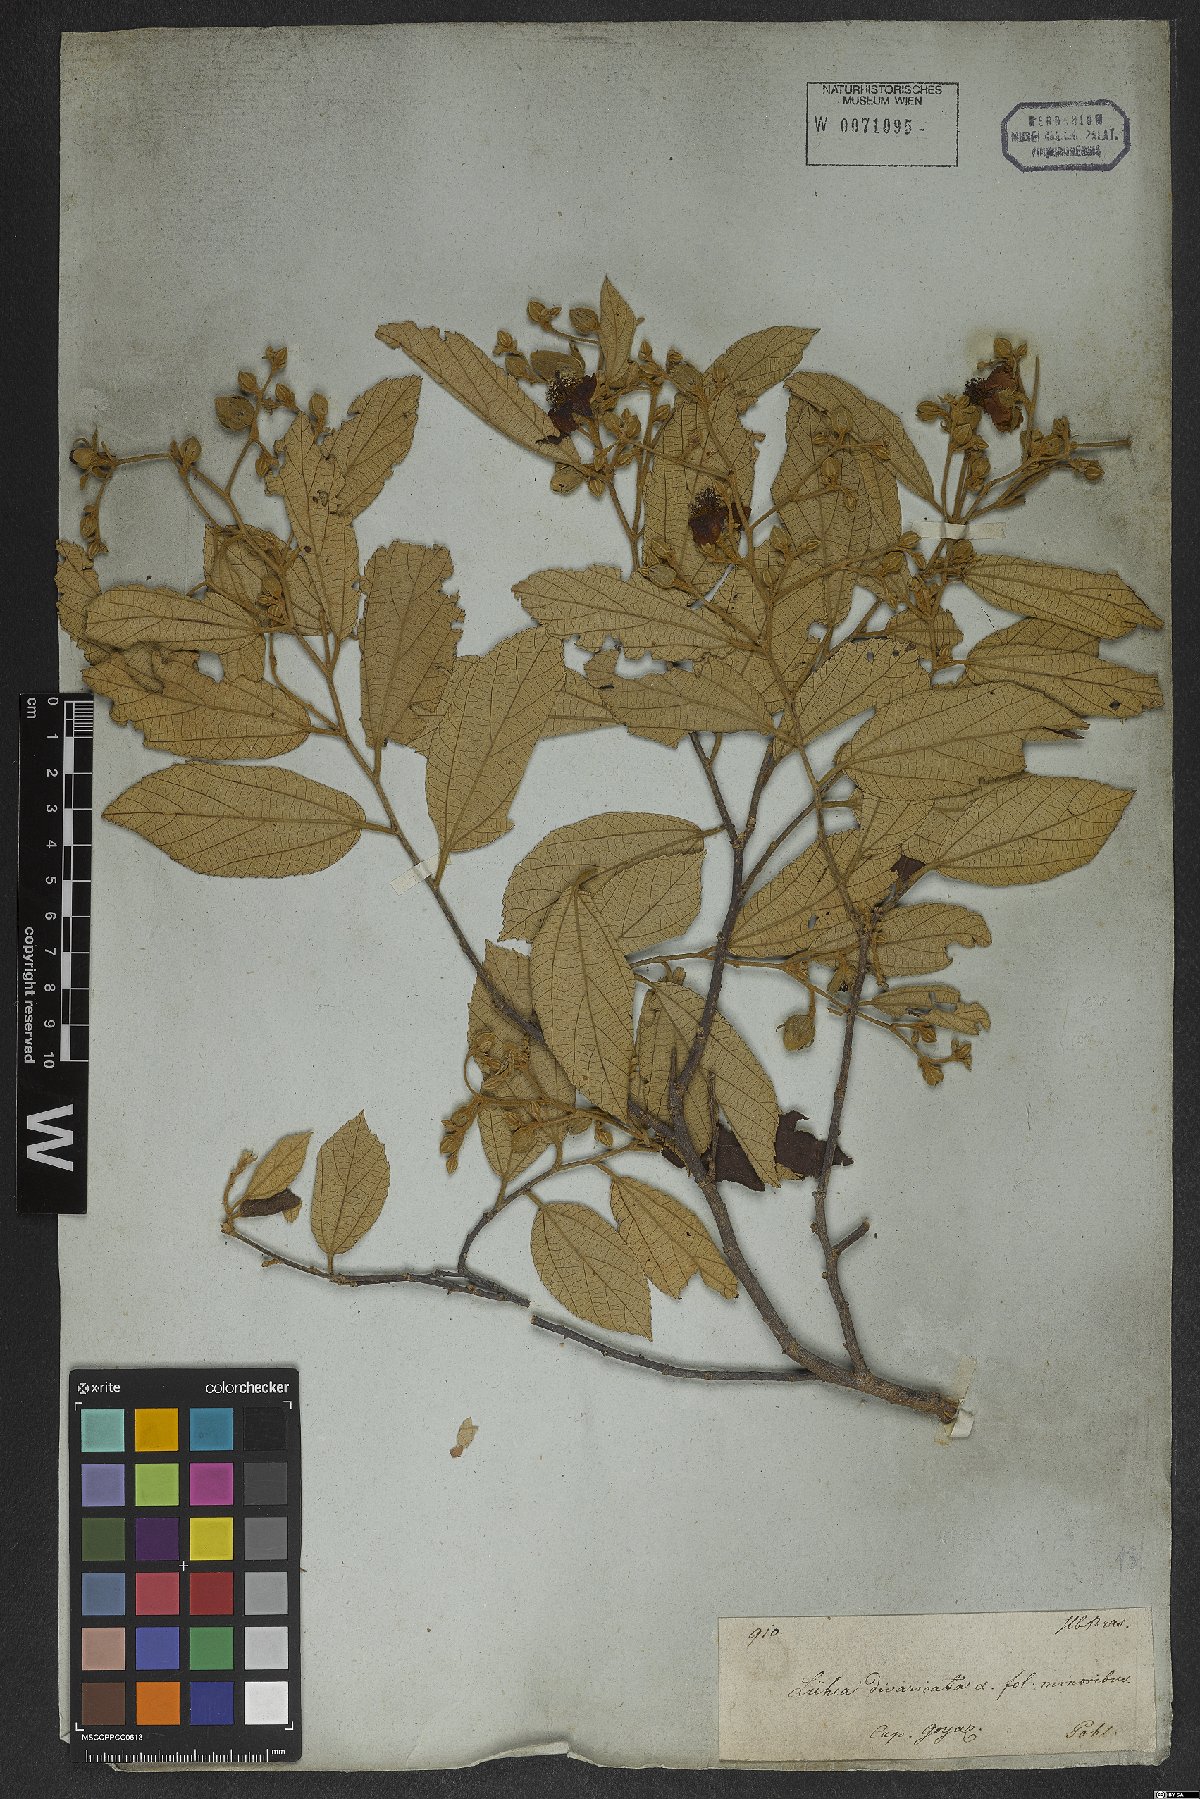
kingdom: Plantae
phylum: Tracheophyta
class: Magnoliopsida
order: Malvales
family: Malvaceae
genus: Luehea
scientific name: Luehea divaricata
